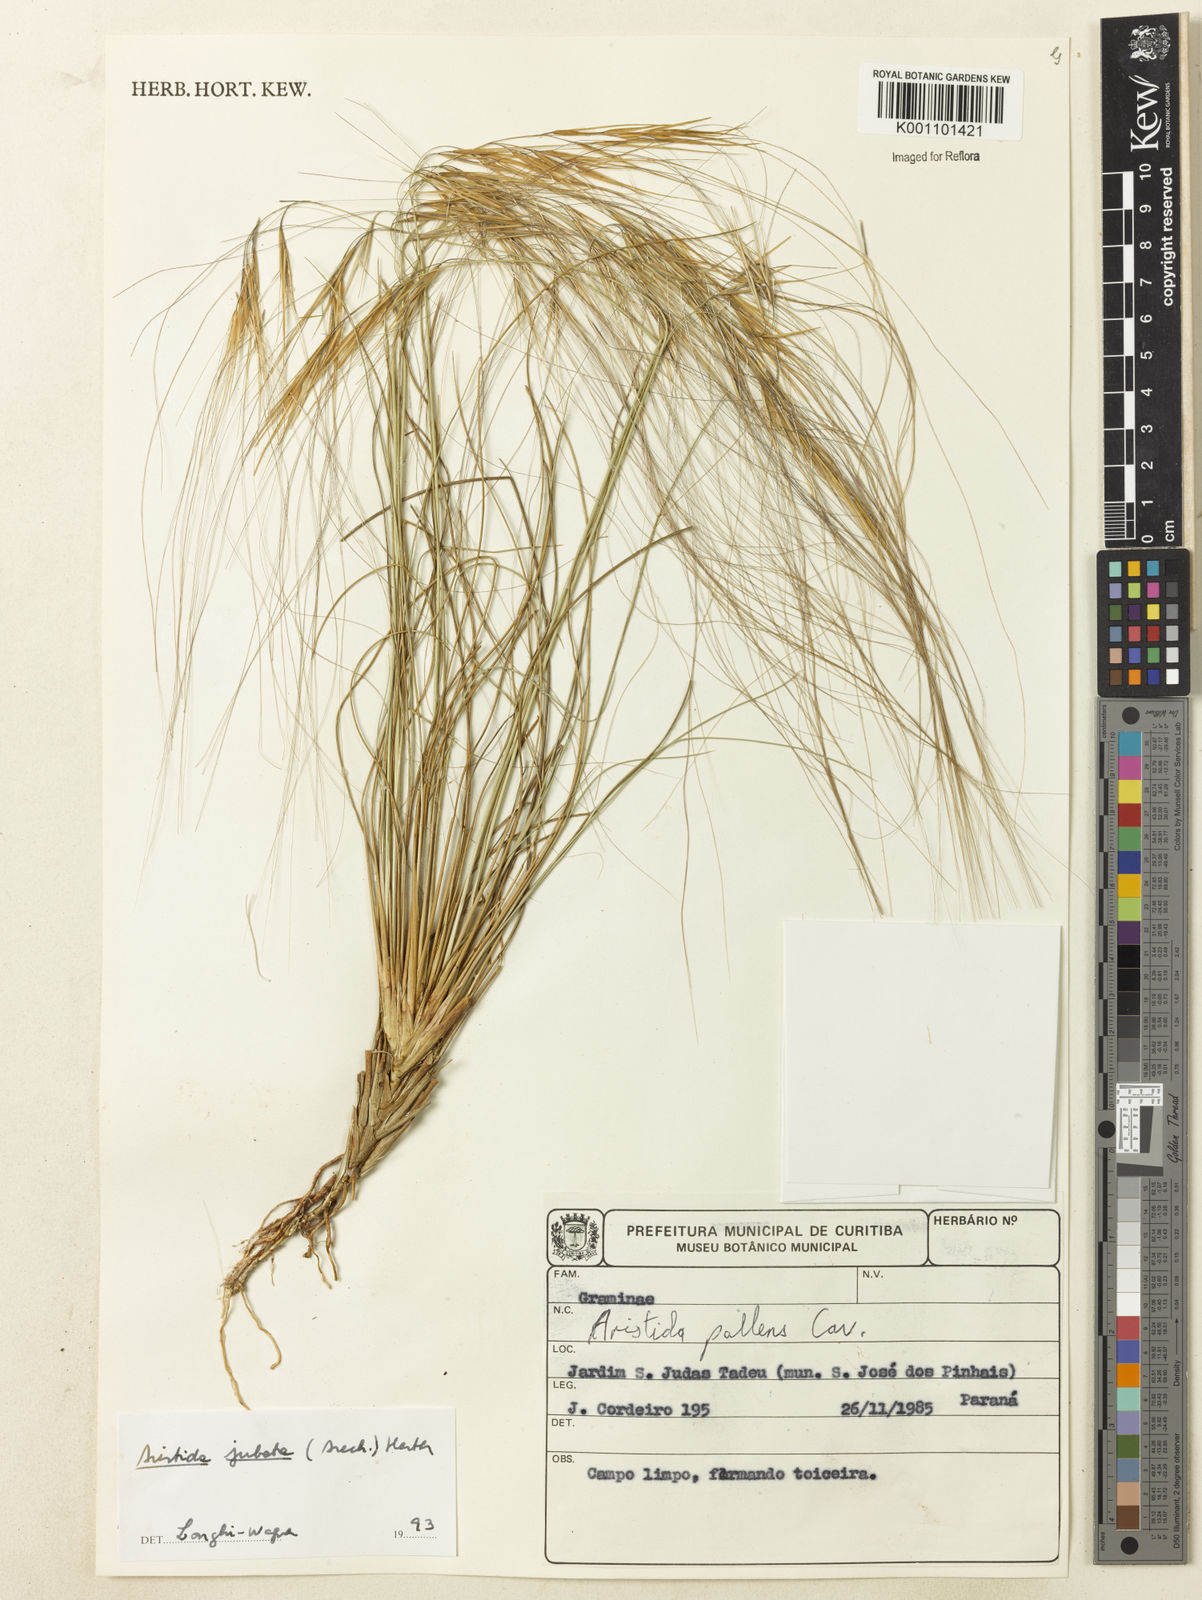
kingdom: Plantae
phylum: Tracheophyta
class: Liliopsida
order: Poales
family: Poaceae
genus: Aristida
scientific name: Aristida jubata
